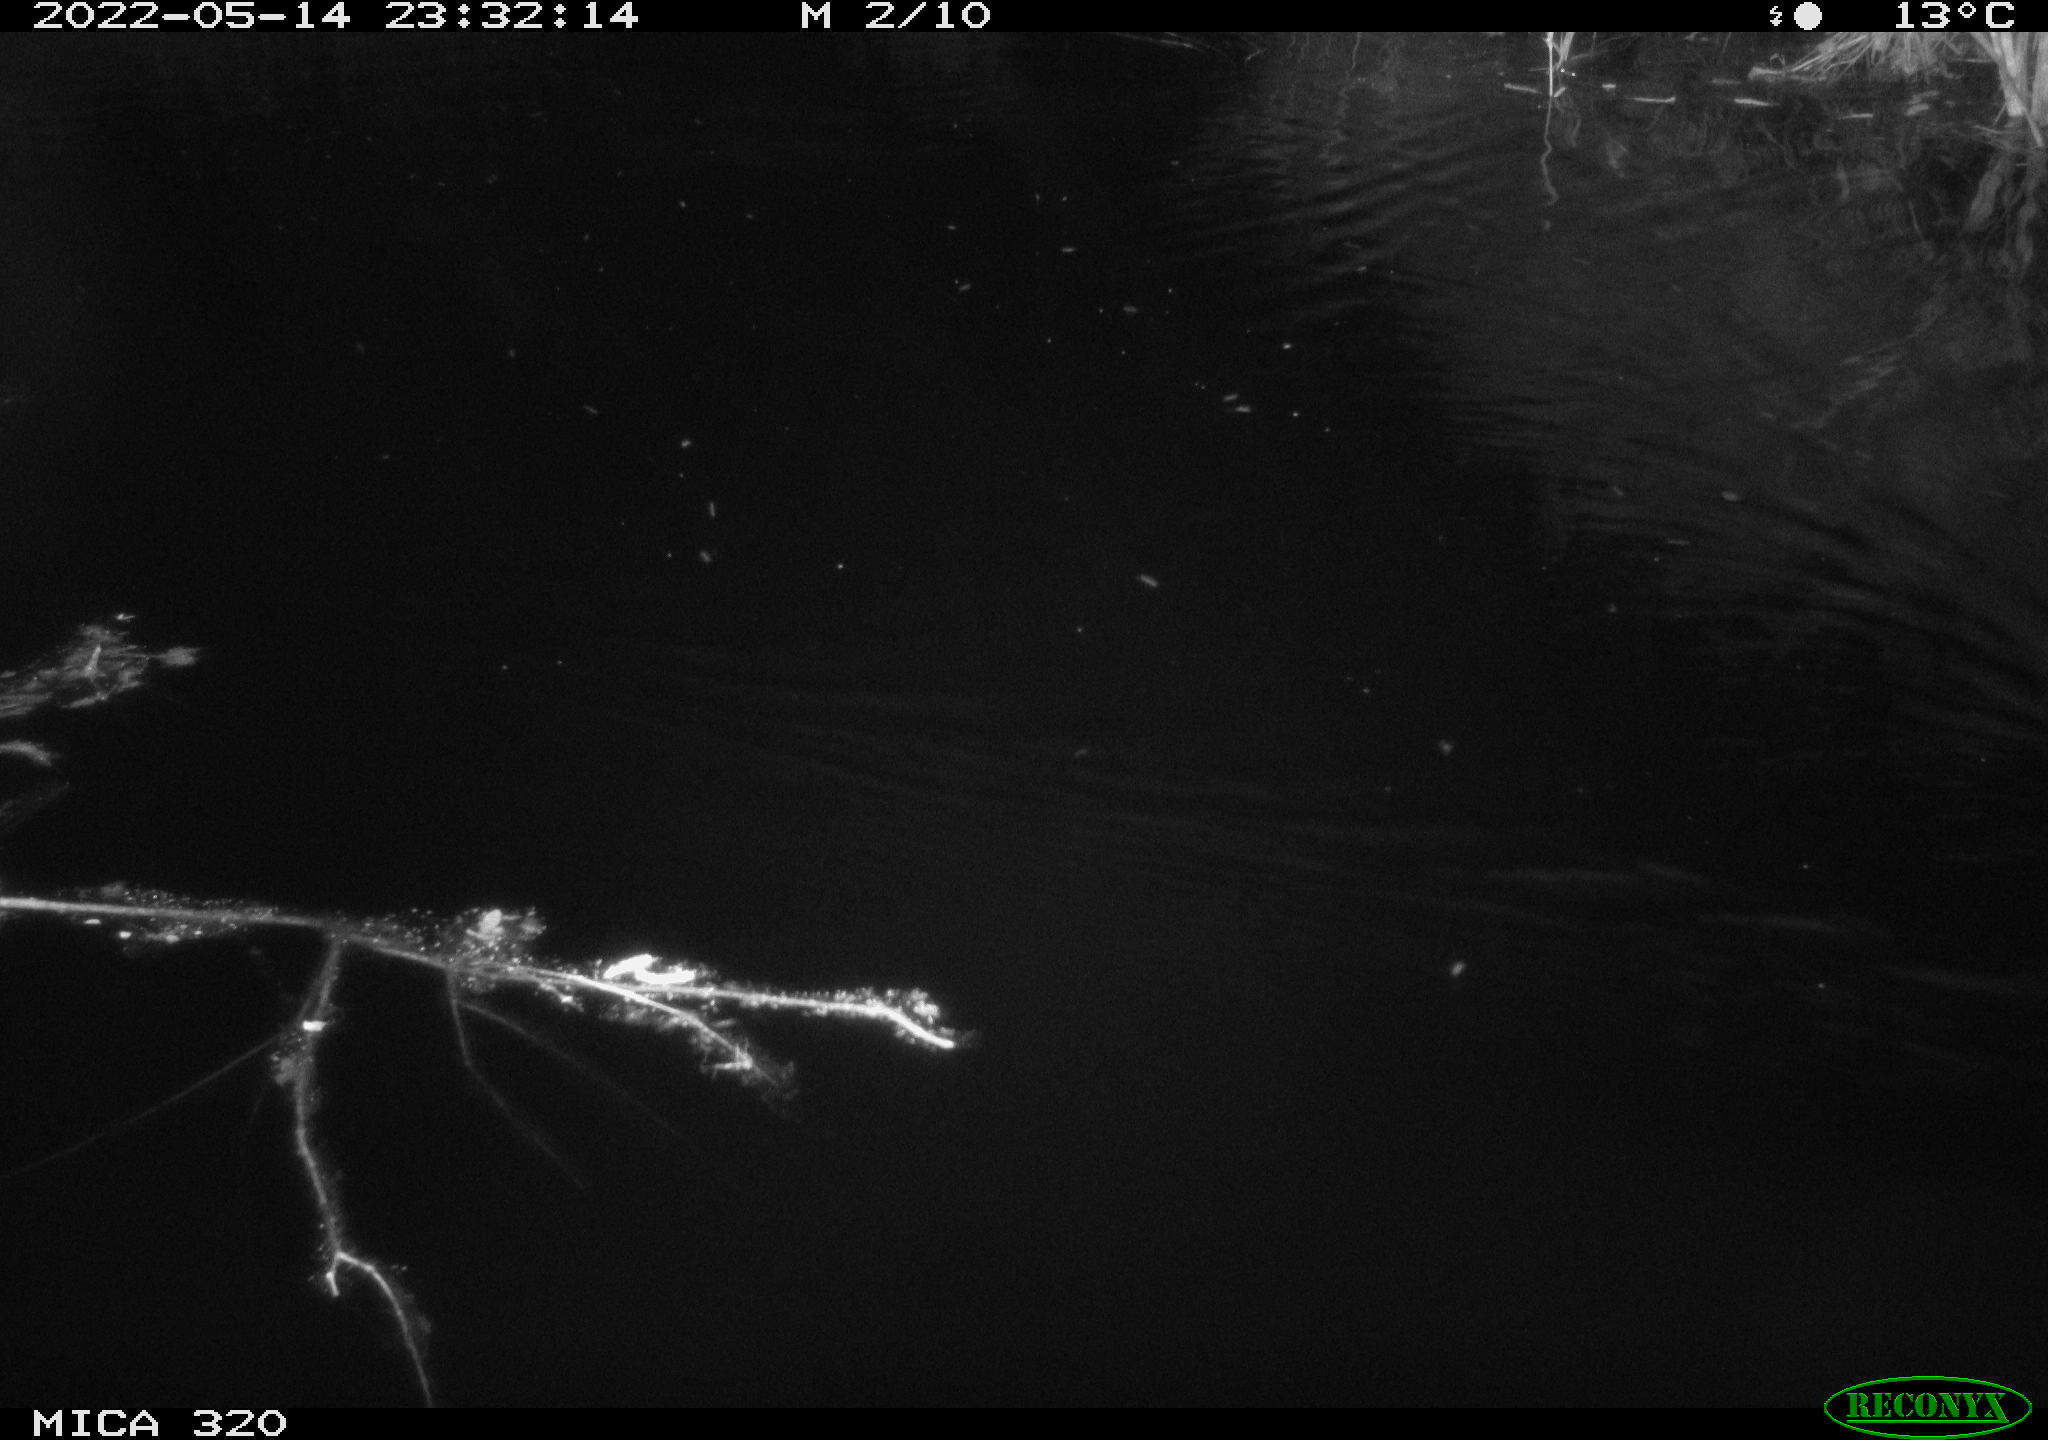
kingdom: Animalia
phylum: Chordata
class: Aves
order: Gruiformes
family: Rallidae
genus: Gallinula
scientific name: Gallinula chloropus
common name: Common moorhen
